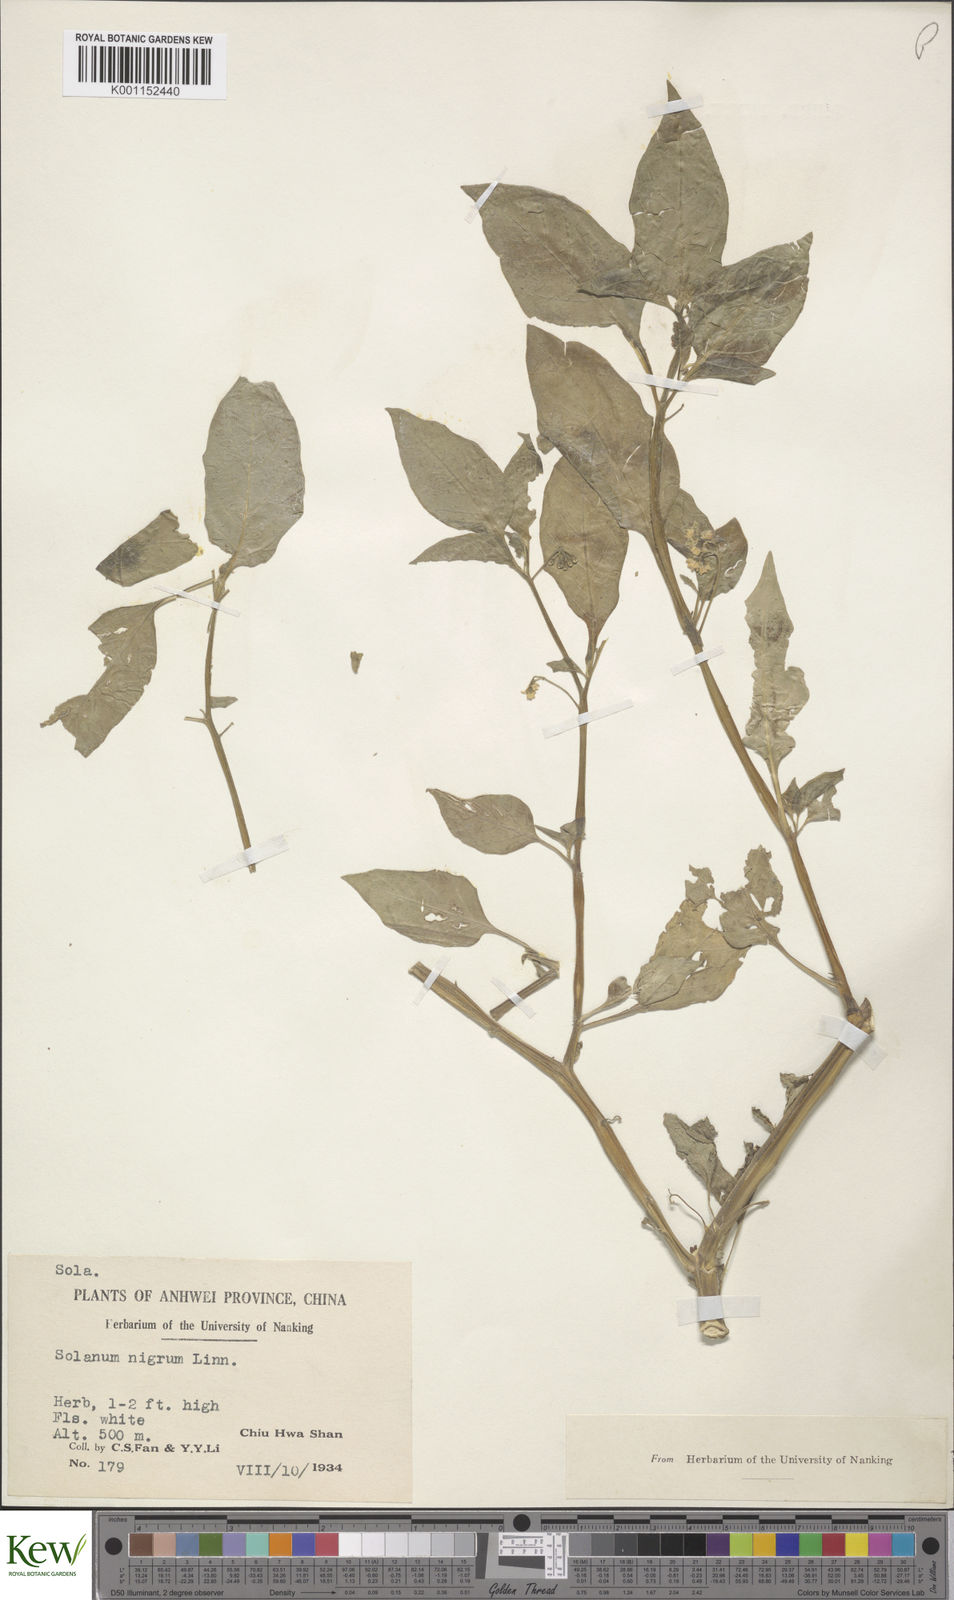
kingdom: Plantae
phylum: Tracheophyta
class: Magnoliopsida
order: Solanales
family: Solanaceae
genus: Solanum
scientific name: Solanum americanum
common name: American black nightshade
